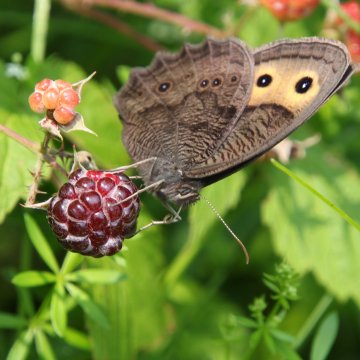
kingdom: Animalia
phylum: Arthropoda
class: Insecta
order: Lepidoptera
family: Nymphalidae
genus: Cercyonis
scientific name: Cercyonis pegala
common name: Common Wood-Nymph
